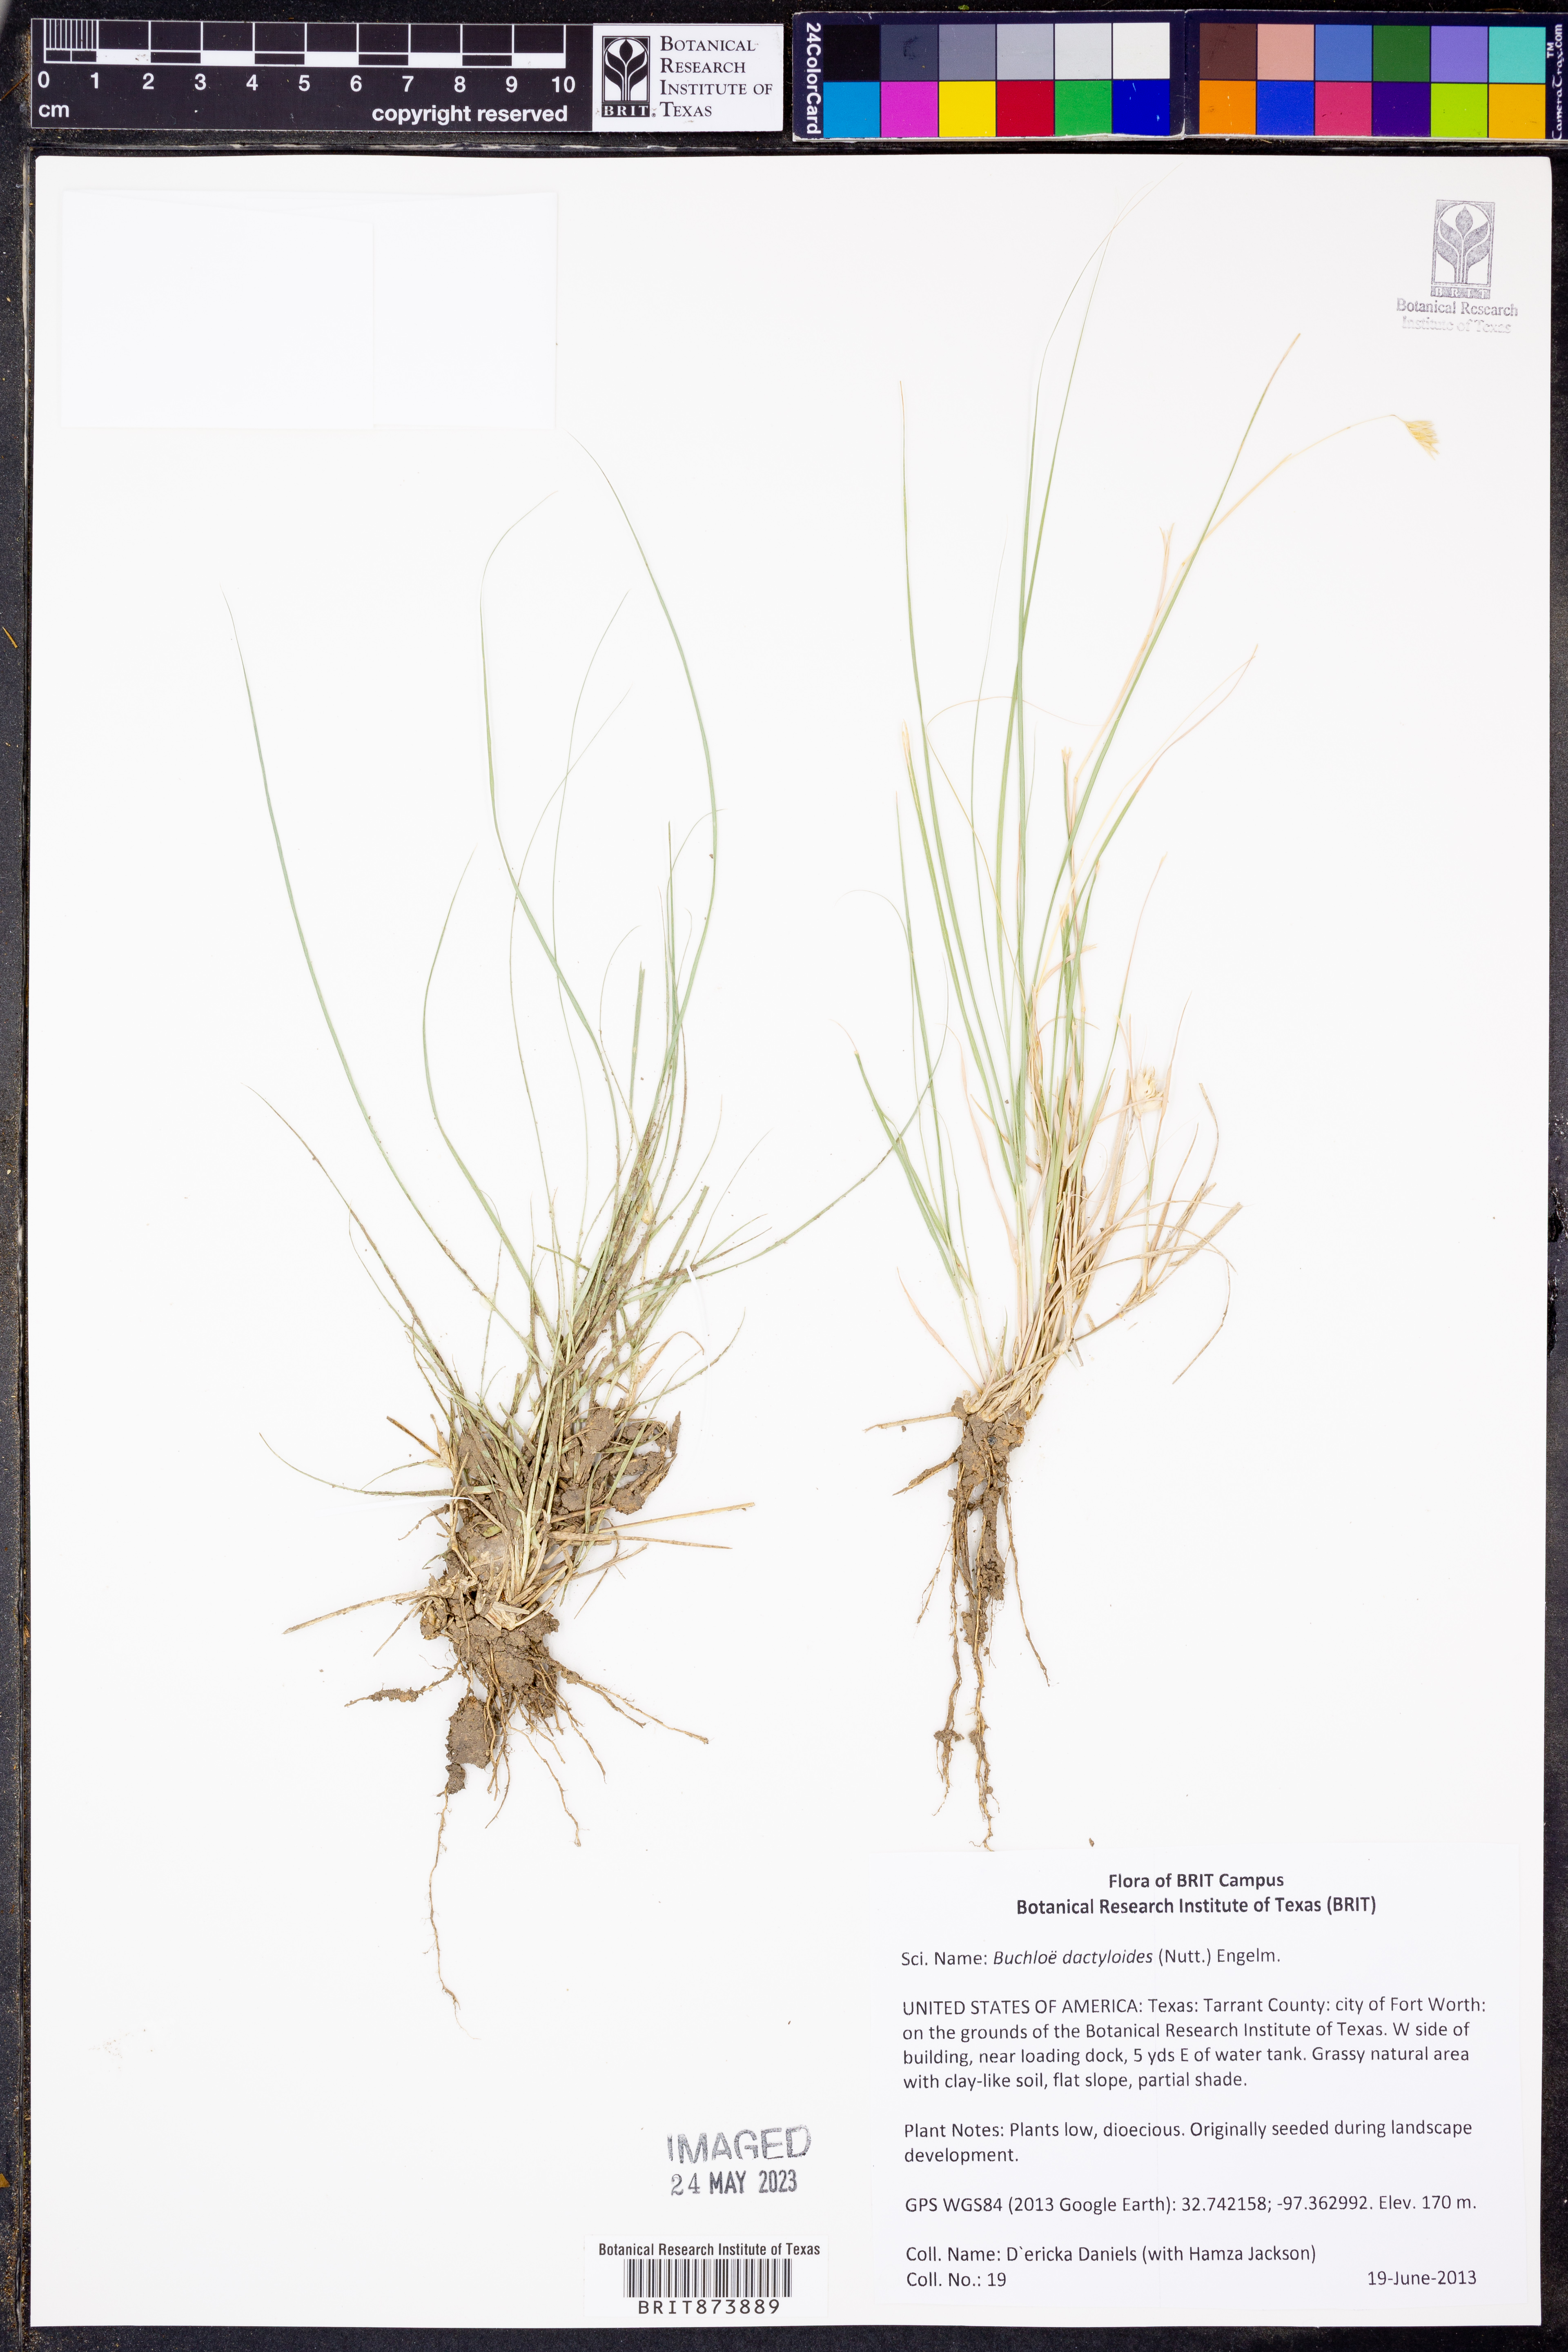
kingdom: Plantae
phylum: Tracheophyta
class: Liliopsida
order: Poales
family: Poaceae
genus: Bouteloua
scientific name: Bouteloua dactyloides
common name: Buffalo grass
